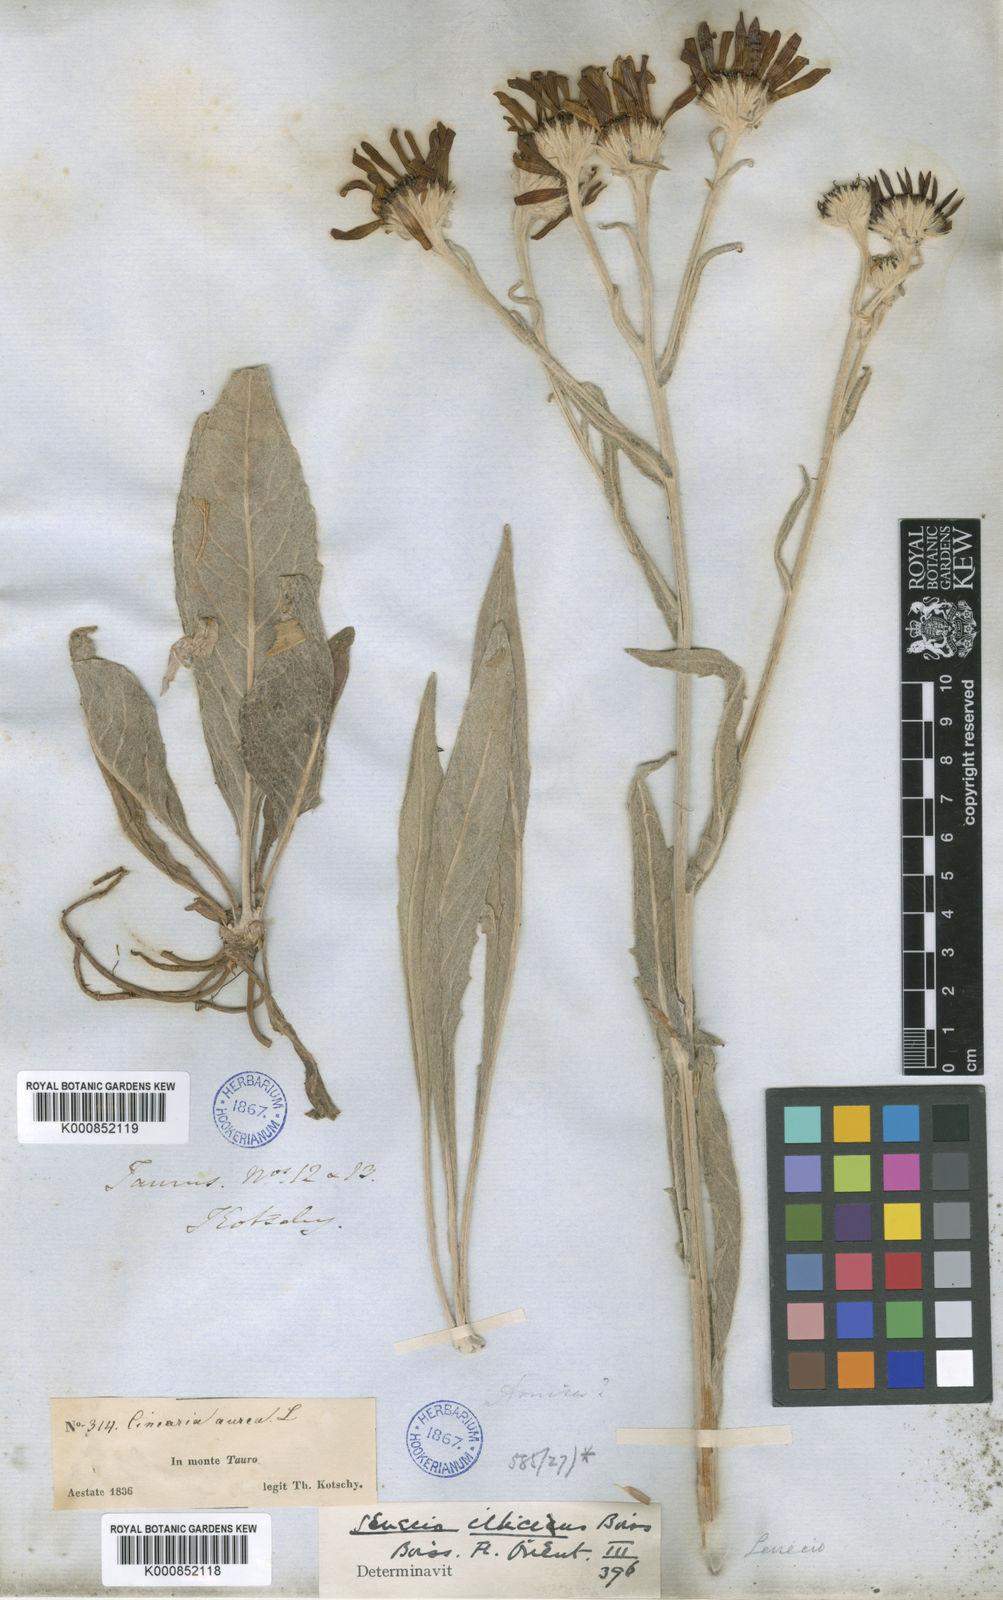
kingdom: Plantae
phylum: Tracheophyta
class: Magnoliopsida
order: Asterales
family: Asteraceae
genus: Jacobaea
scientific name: Jacobaea cilicia
